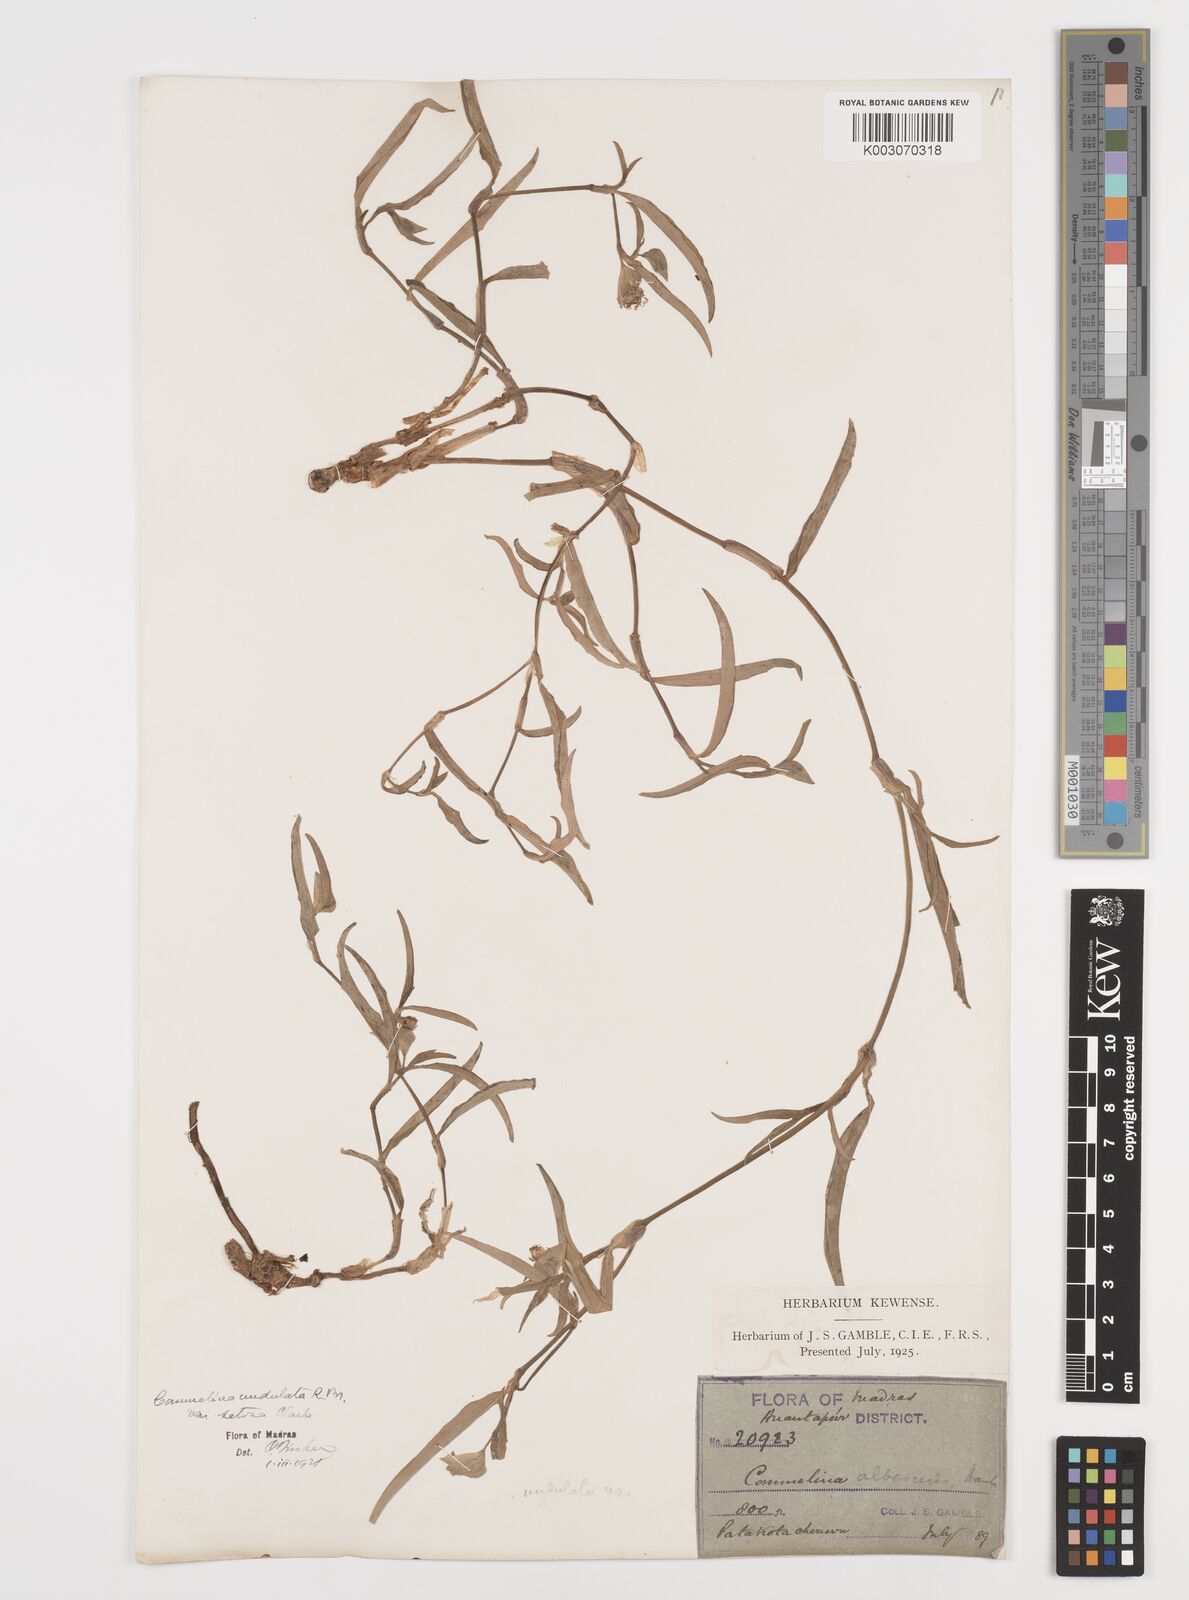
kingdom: Plantae
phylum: Tracheophyta
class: Liliopsida
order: Commelinales
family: Commelinaceae
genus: Commelina
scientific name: Commelina chamissonis
